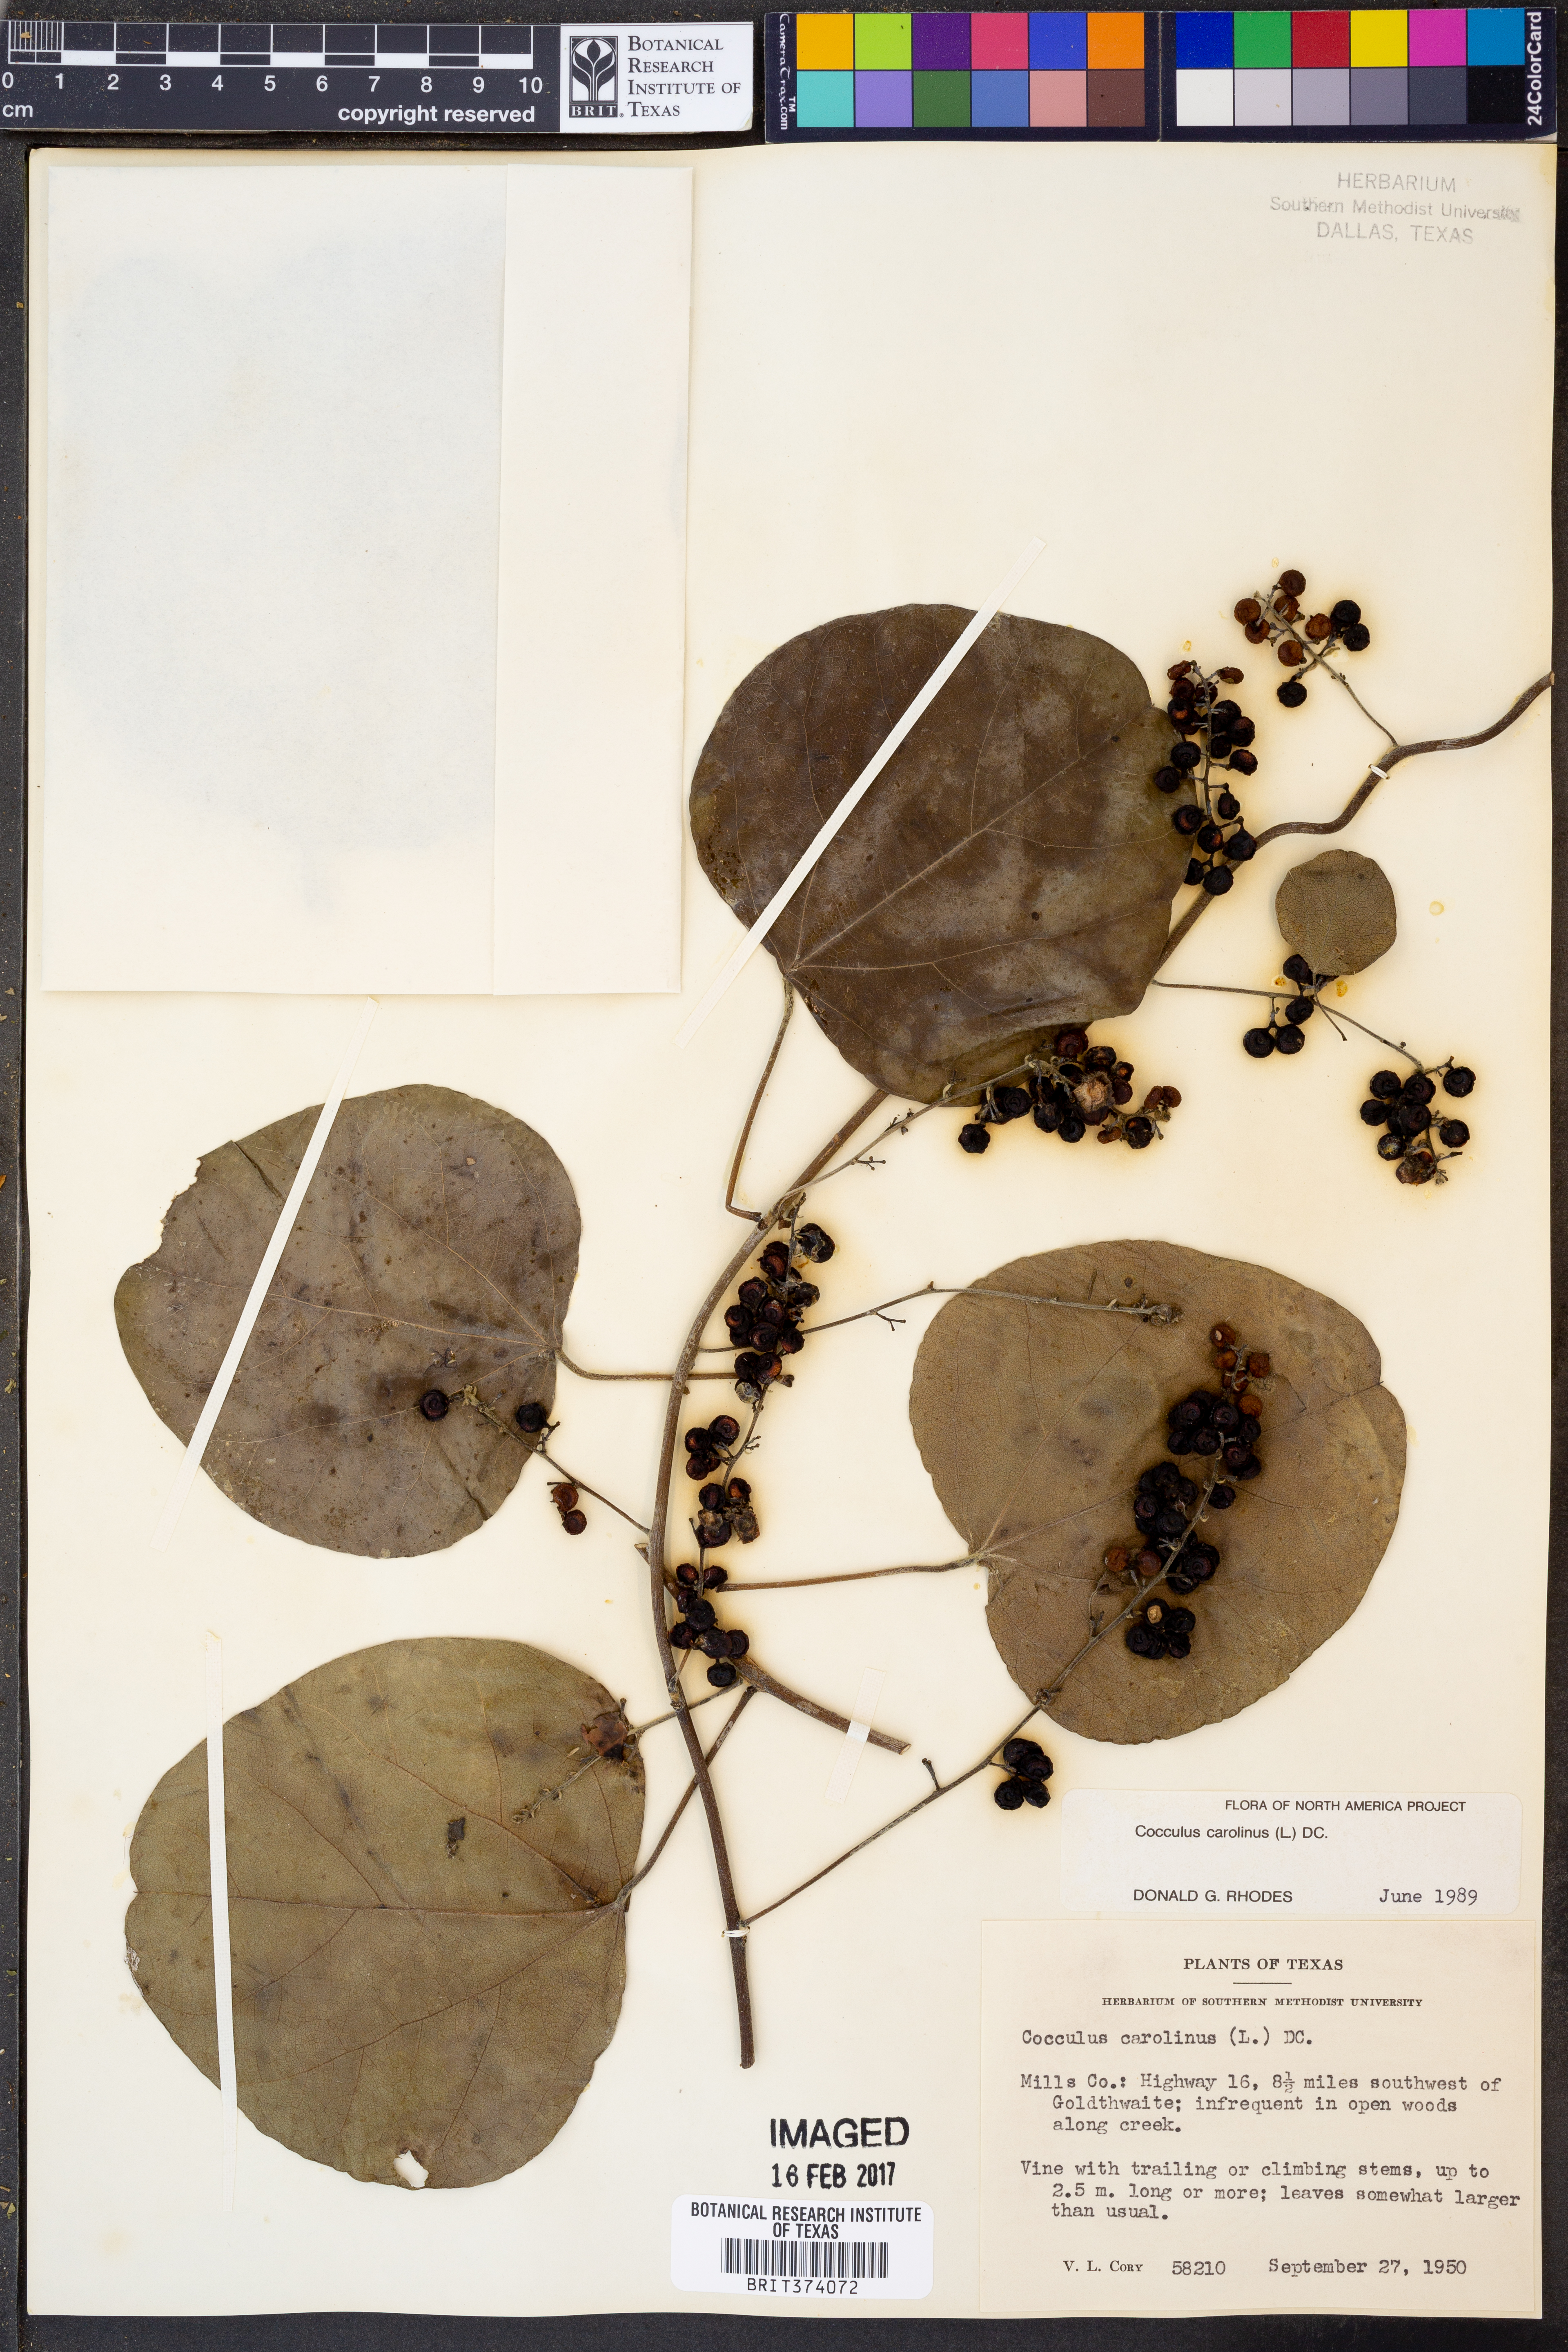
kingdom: Plantae
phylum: Tracheophyta
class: Magnoliopsida
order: Ranunculales
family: Menispermaceae
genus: Cocculus
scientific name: Cocculus carolinus
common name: Carolina moonseed
